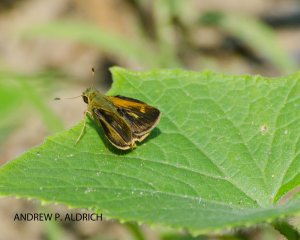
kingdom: Animalia
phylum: Arthropoda
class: Insecta
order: Lepidoptera
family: Hesperiidae
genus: Polites
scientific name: Polites egeremet
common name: Northern Broken-Dash
